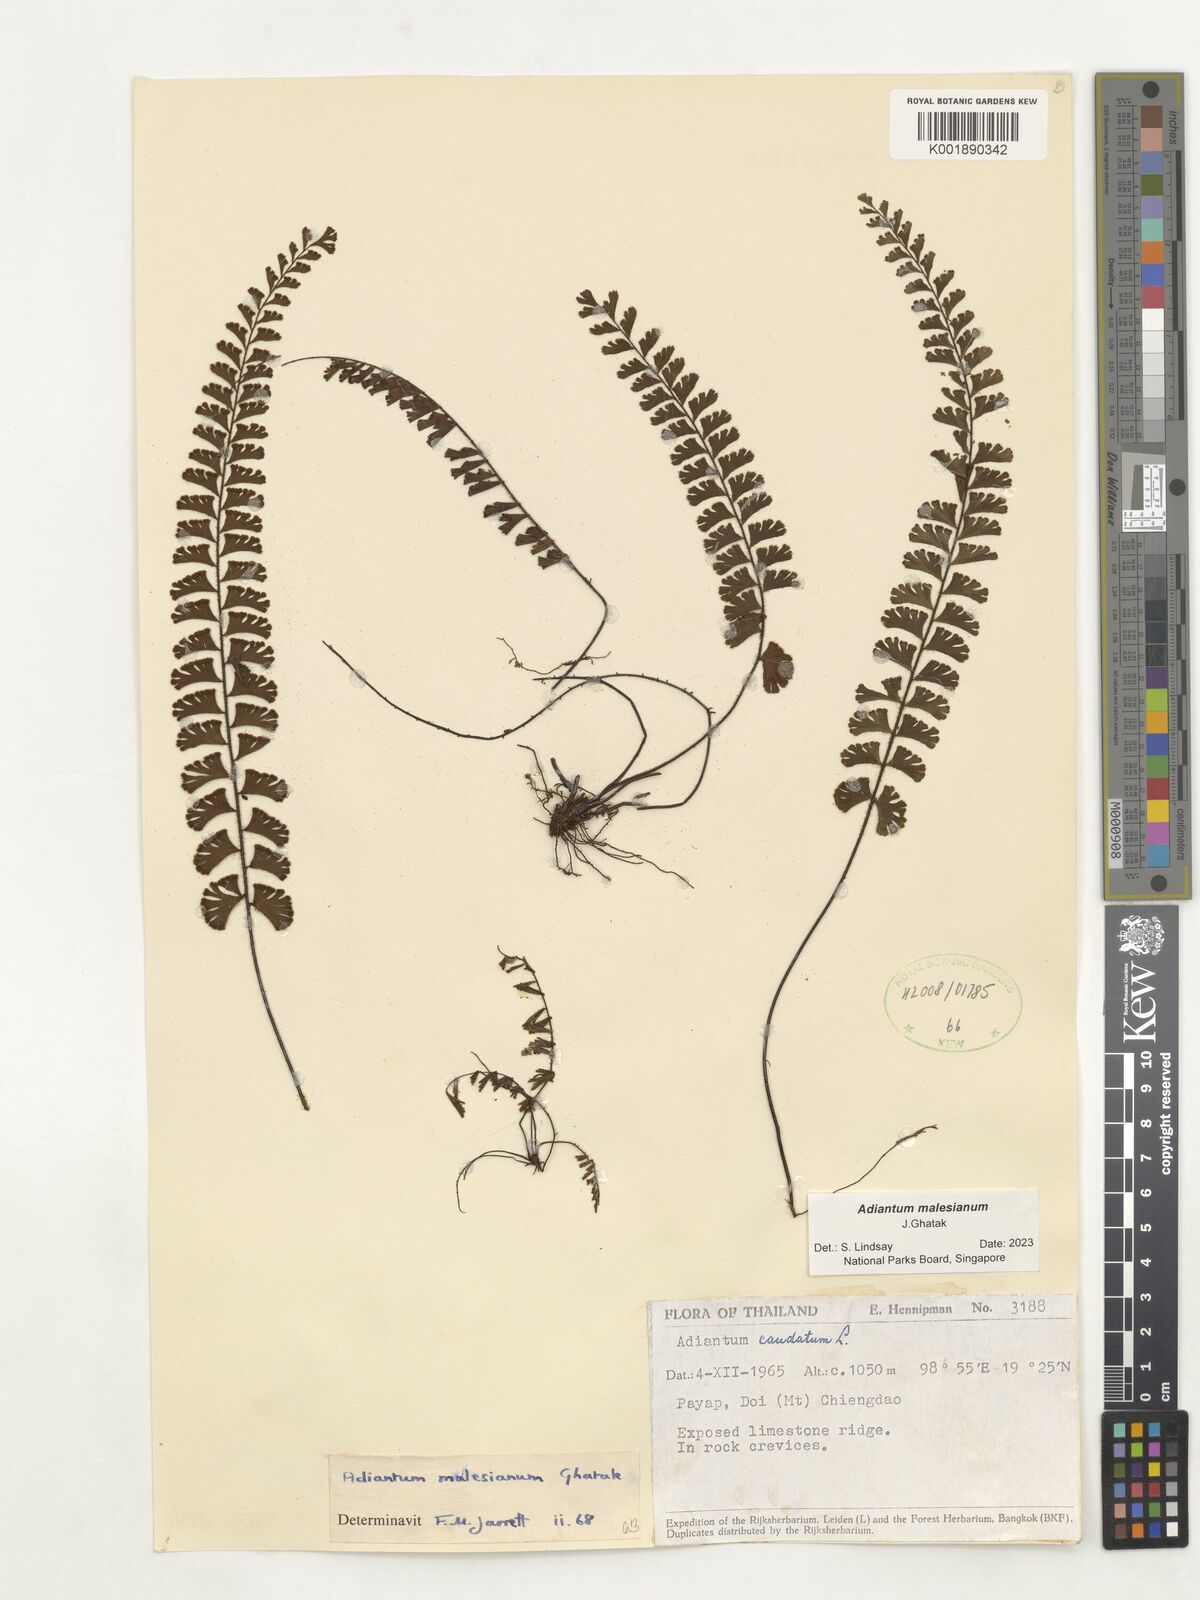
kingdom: Plantae
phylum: Tracheophyta
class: Polypodiopsida
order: Polypodiales
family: Pteridaceae
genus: Adiantum
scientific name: Adiantum ciliatum
